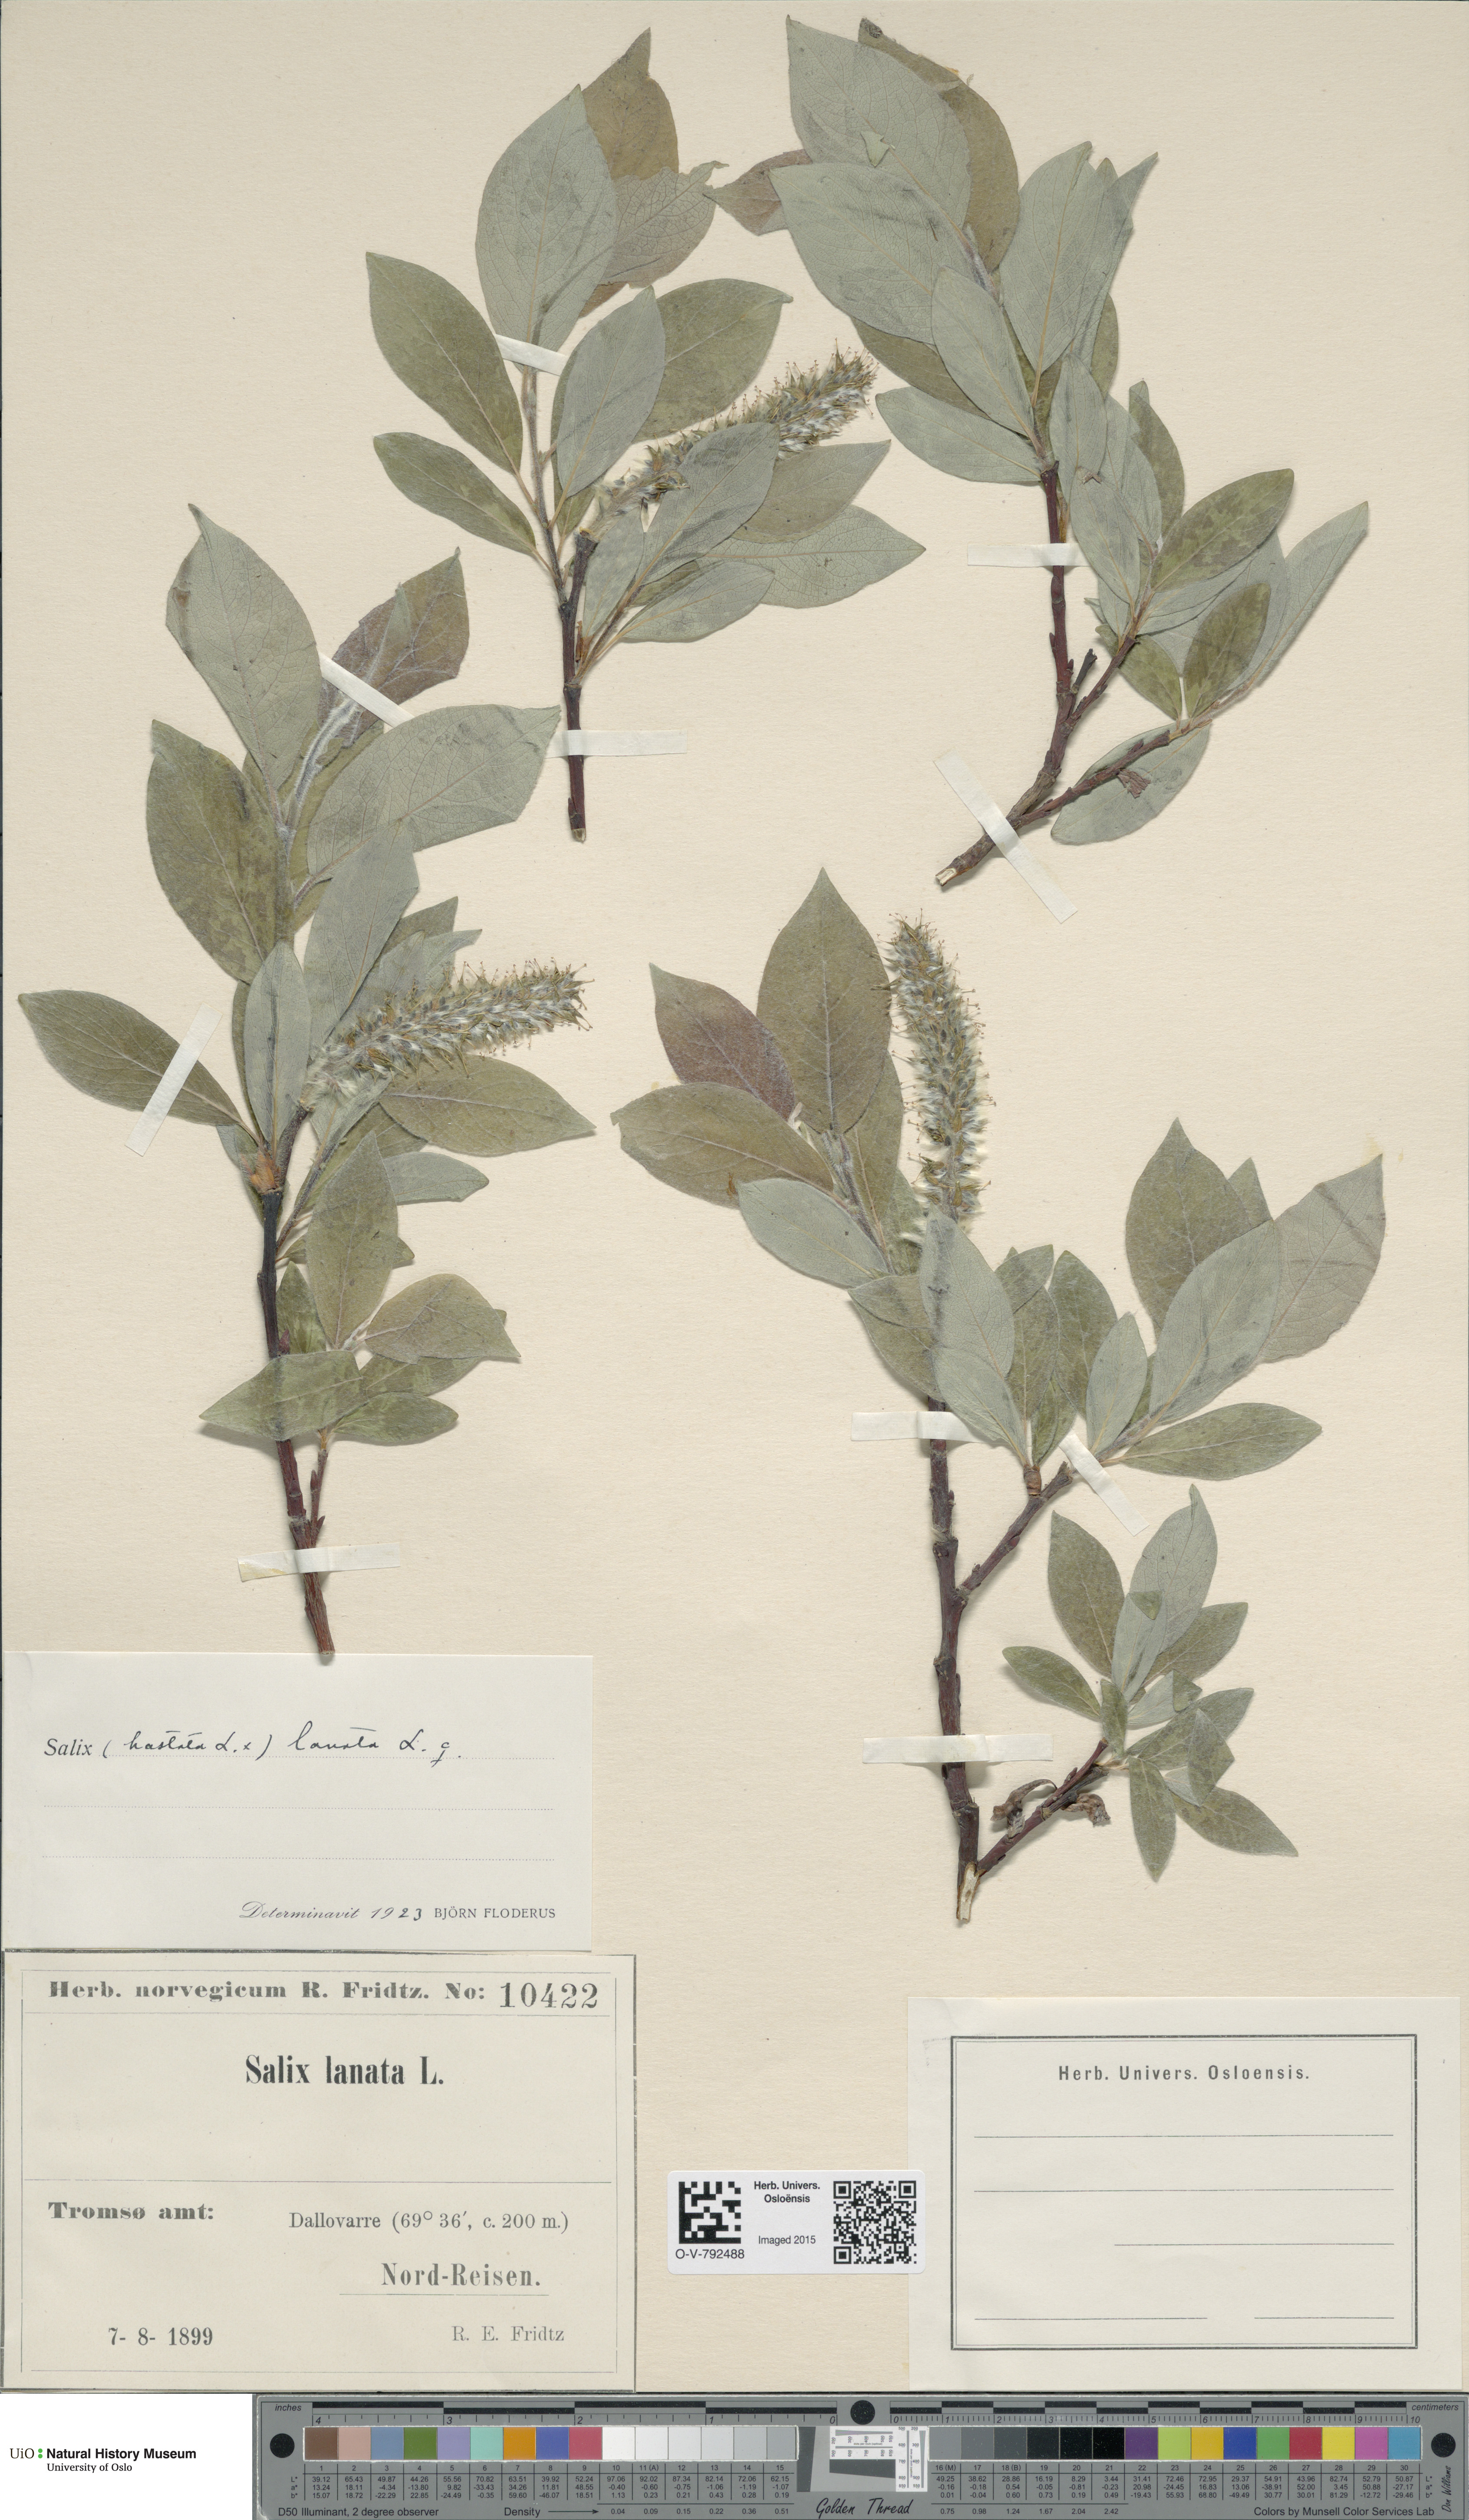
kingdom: Plantae
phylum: Tracheophyta
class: Magnoliopsida
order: Malpighiales
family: Salicaceae
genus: Salix
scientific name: Salix
